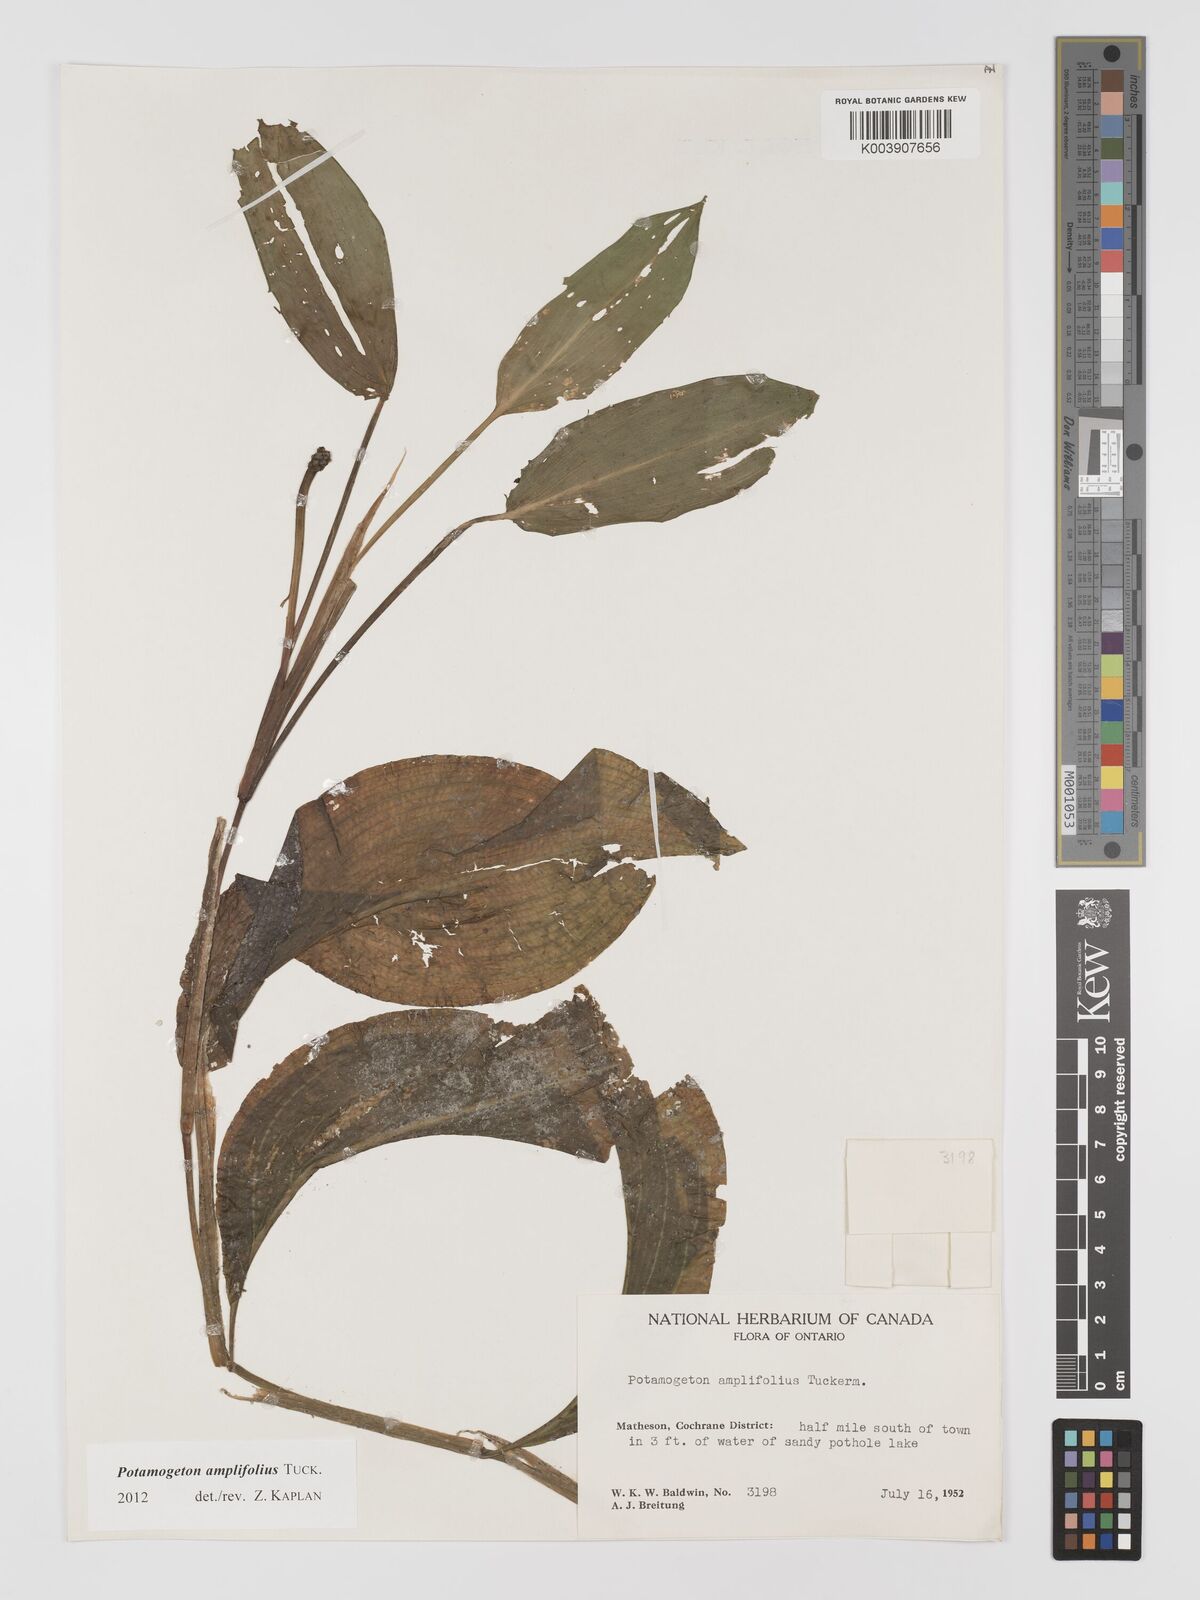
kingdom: Plantae
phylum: Tracheophyta
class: Liliopsida
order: Alismatales
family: Potamogetonaceae
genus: Potamogeton
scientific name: Potamogeton amplifolius
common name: Broad-leaved pondweed
